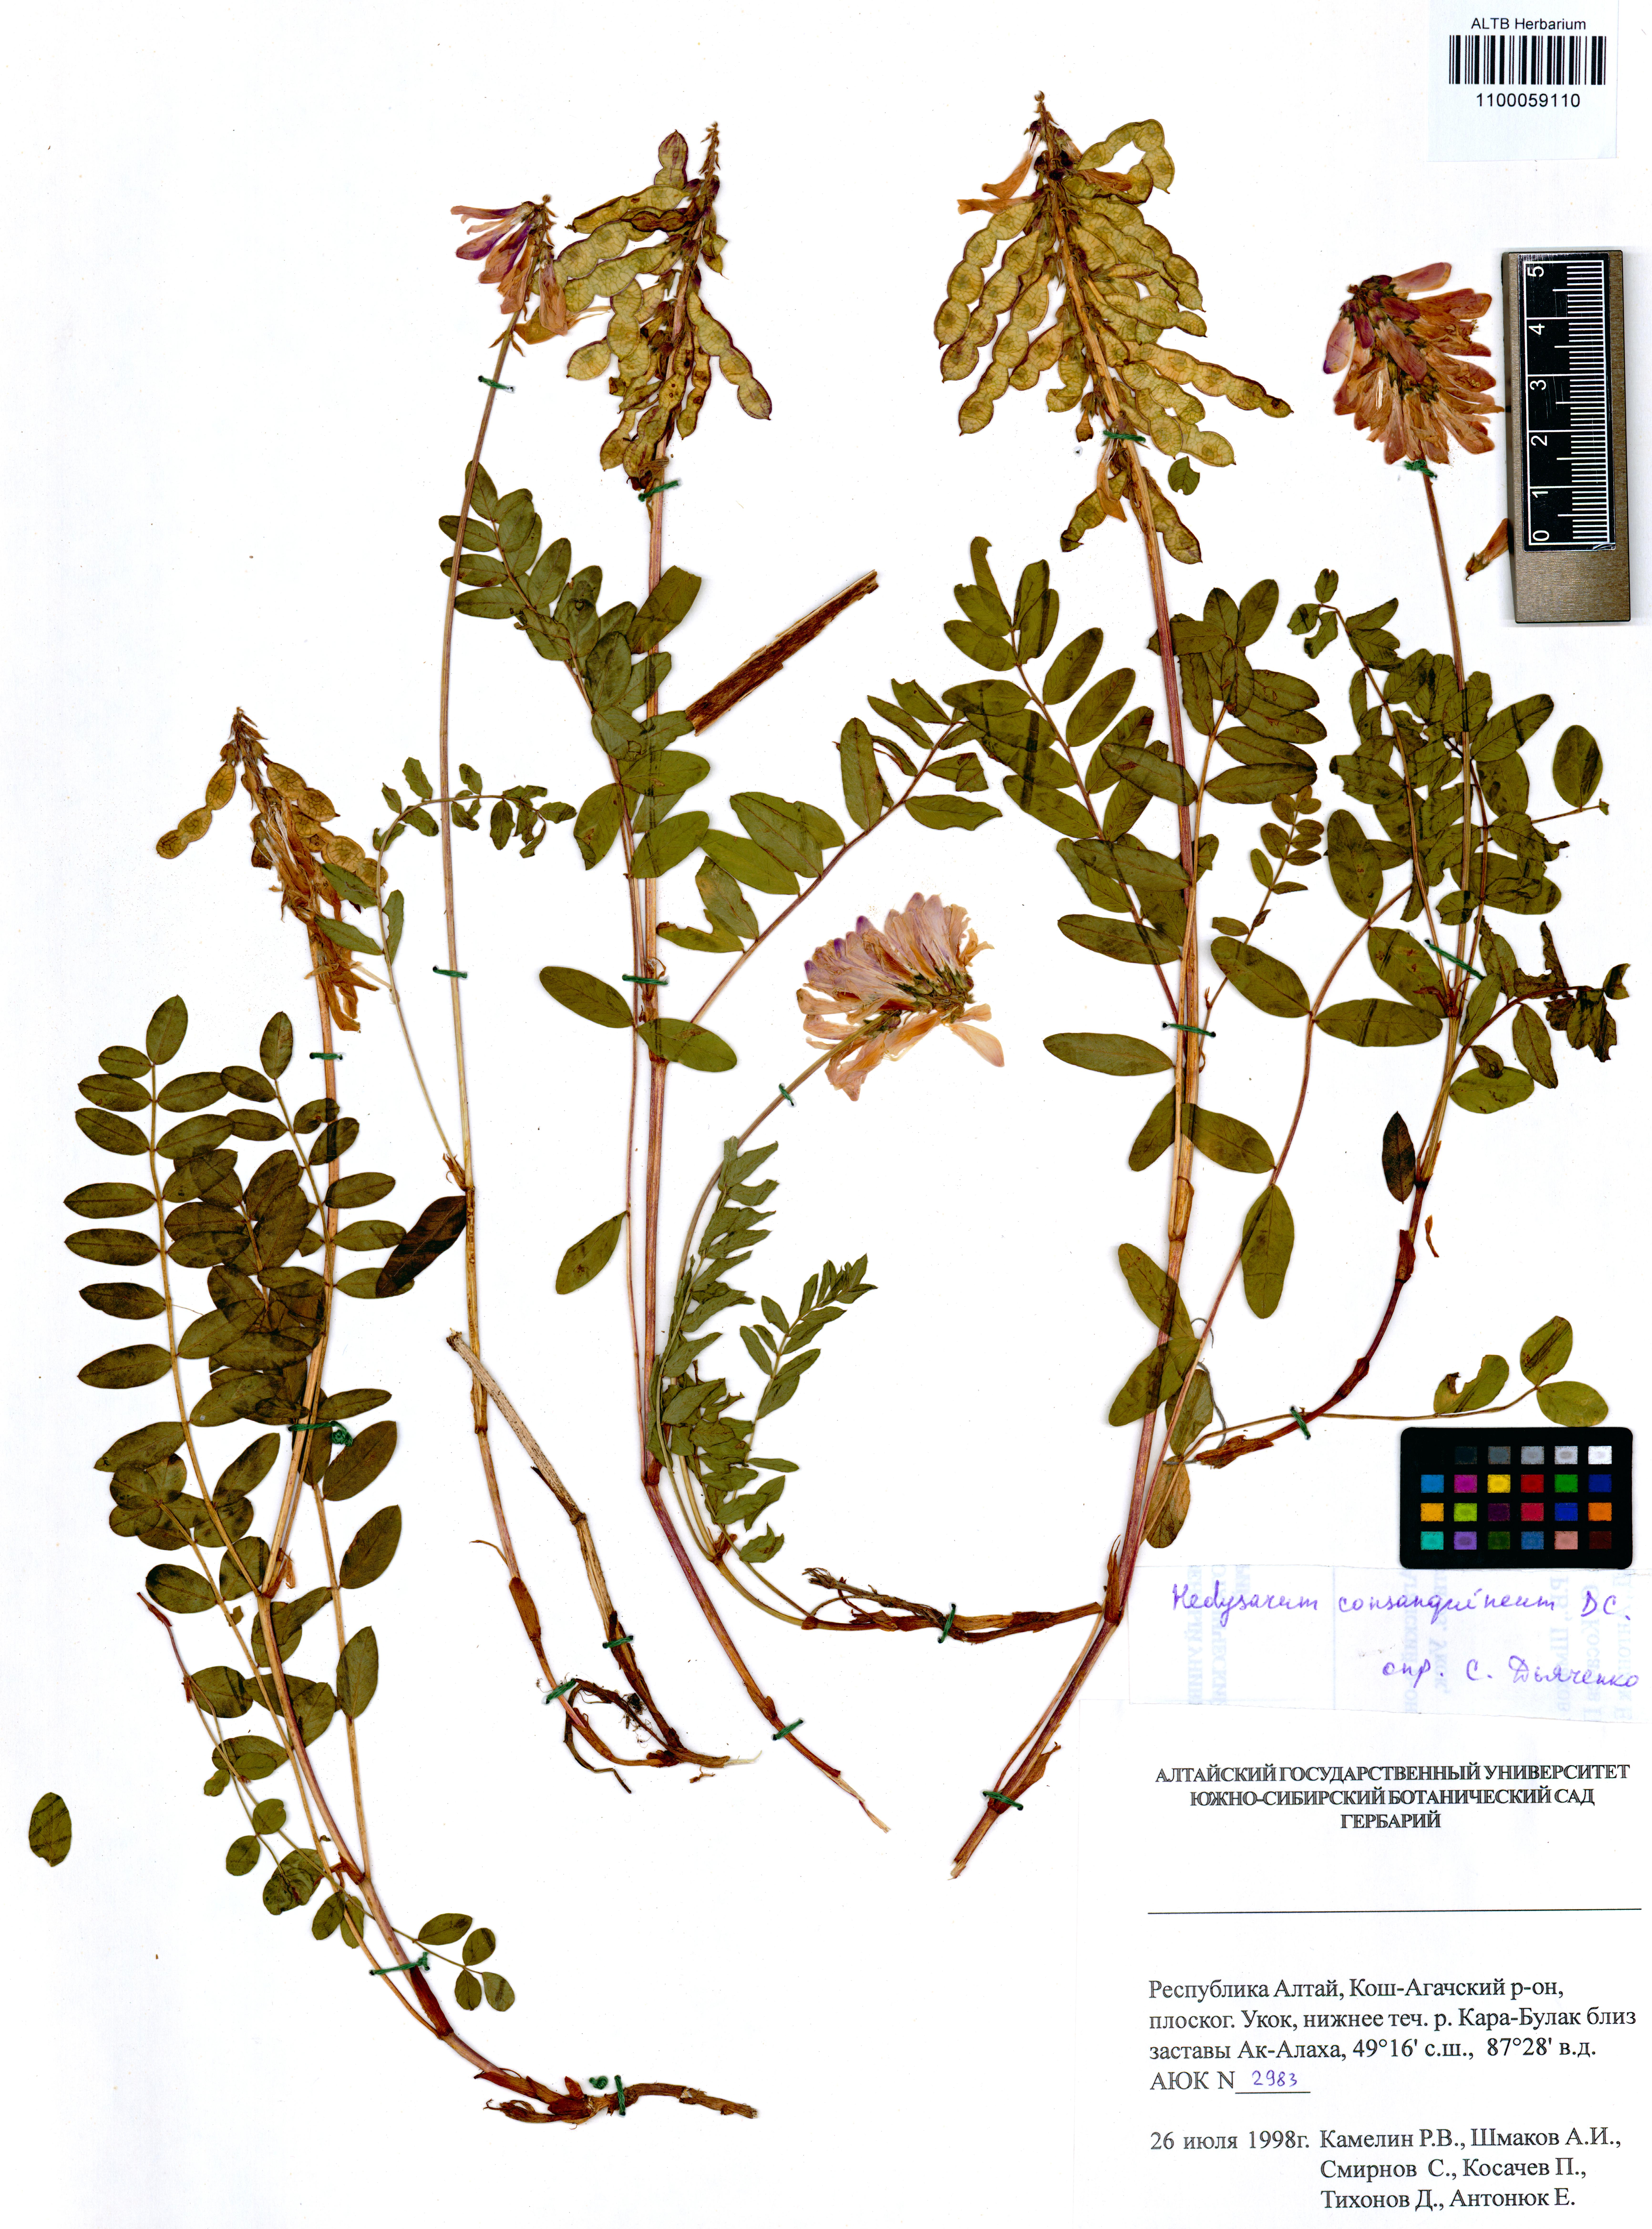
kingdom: Plantae
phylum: Tracheophyta
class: Magnoliopsida
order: Fabales
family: Fabaceae
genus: Hedysarum
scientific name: Hedysarum consanguineum
